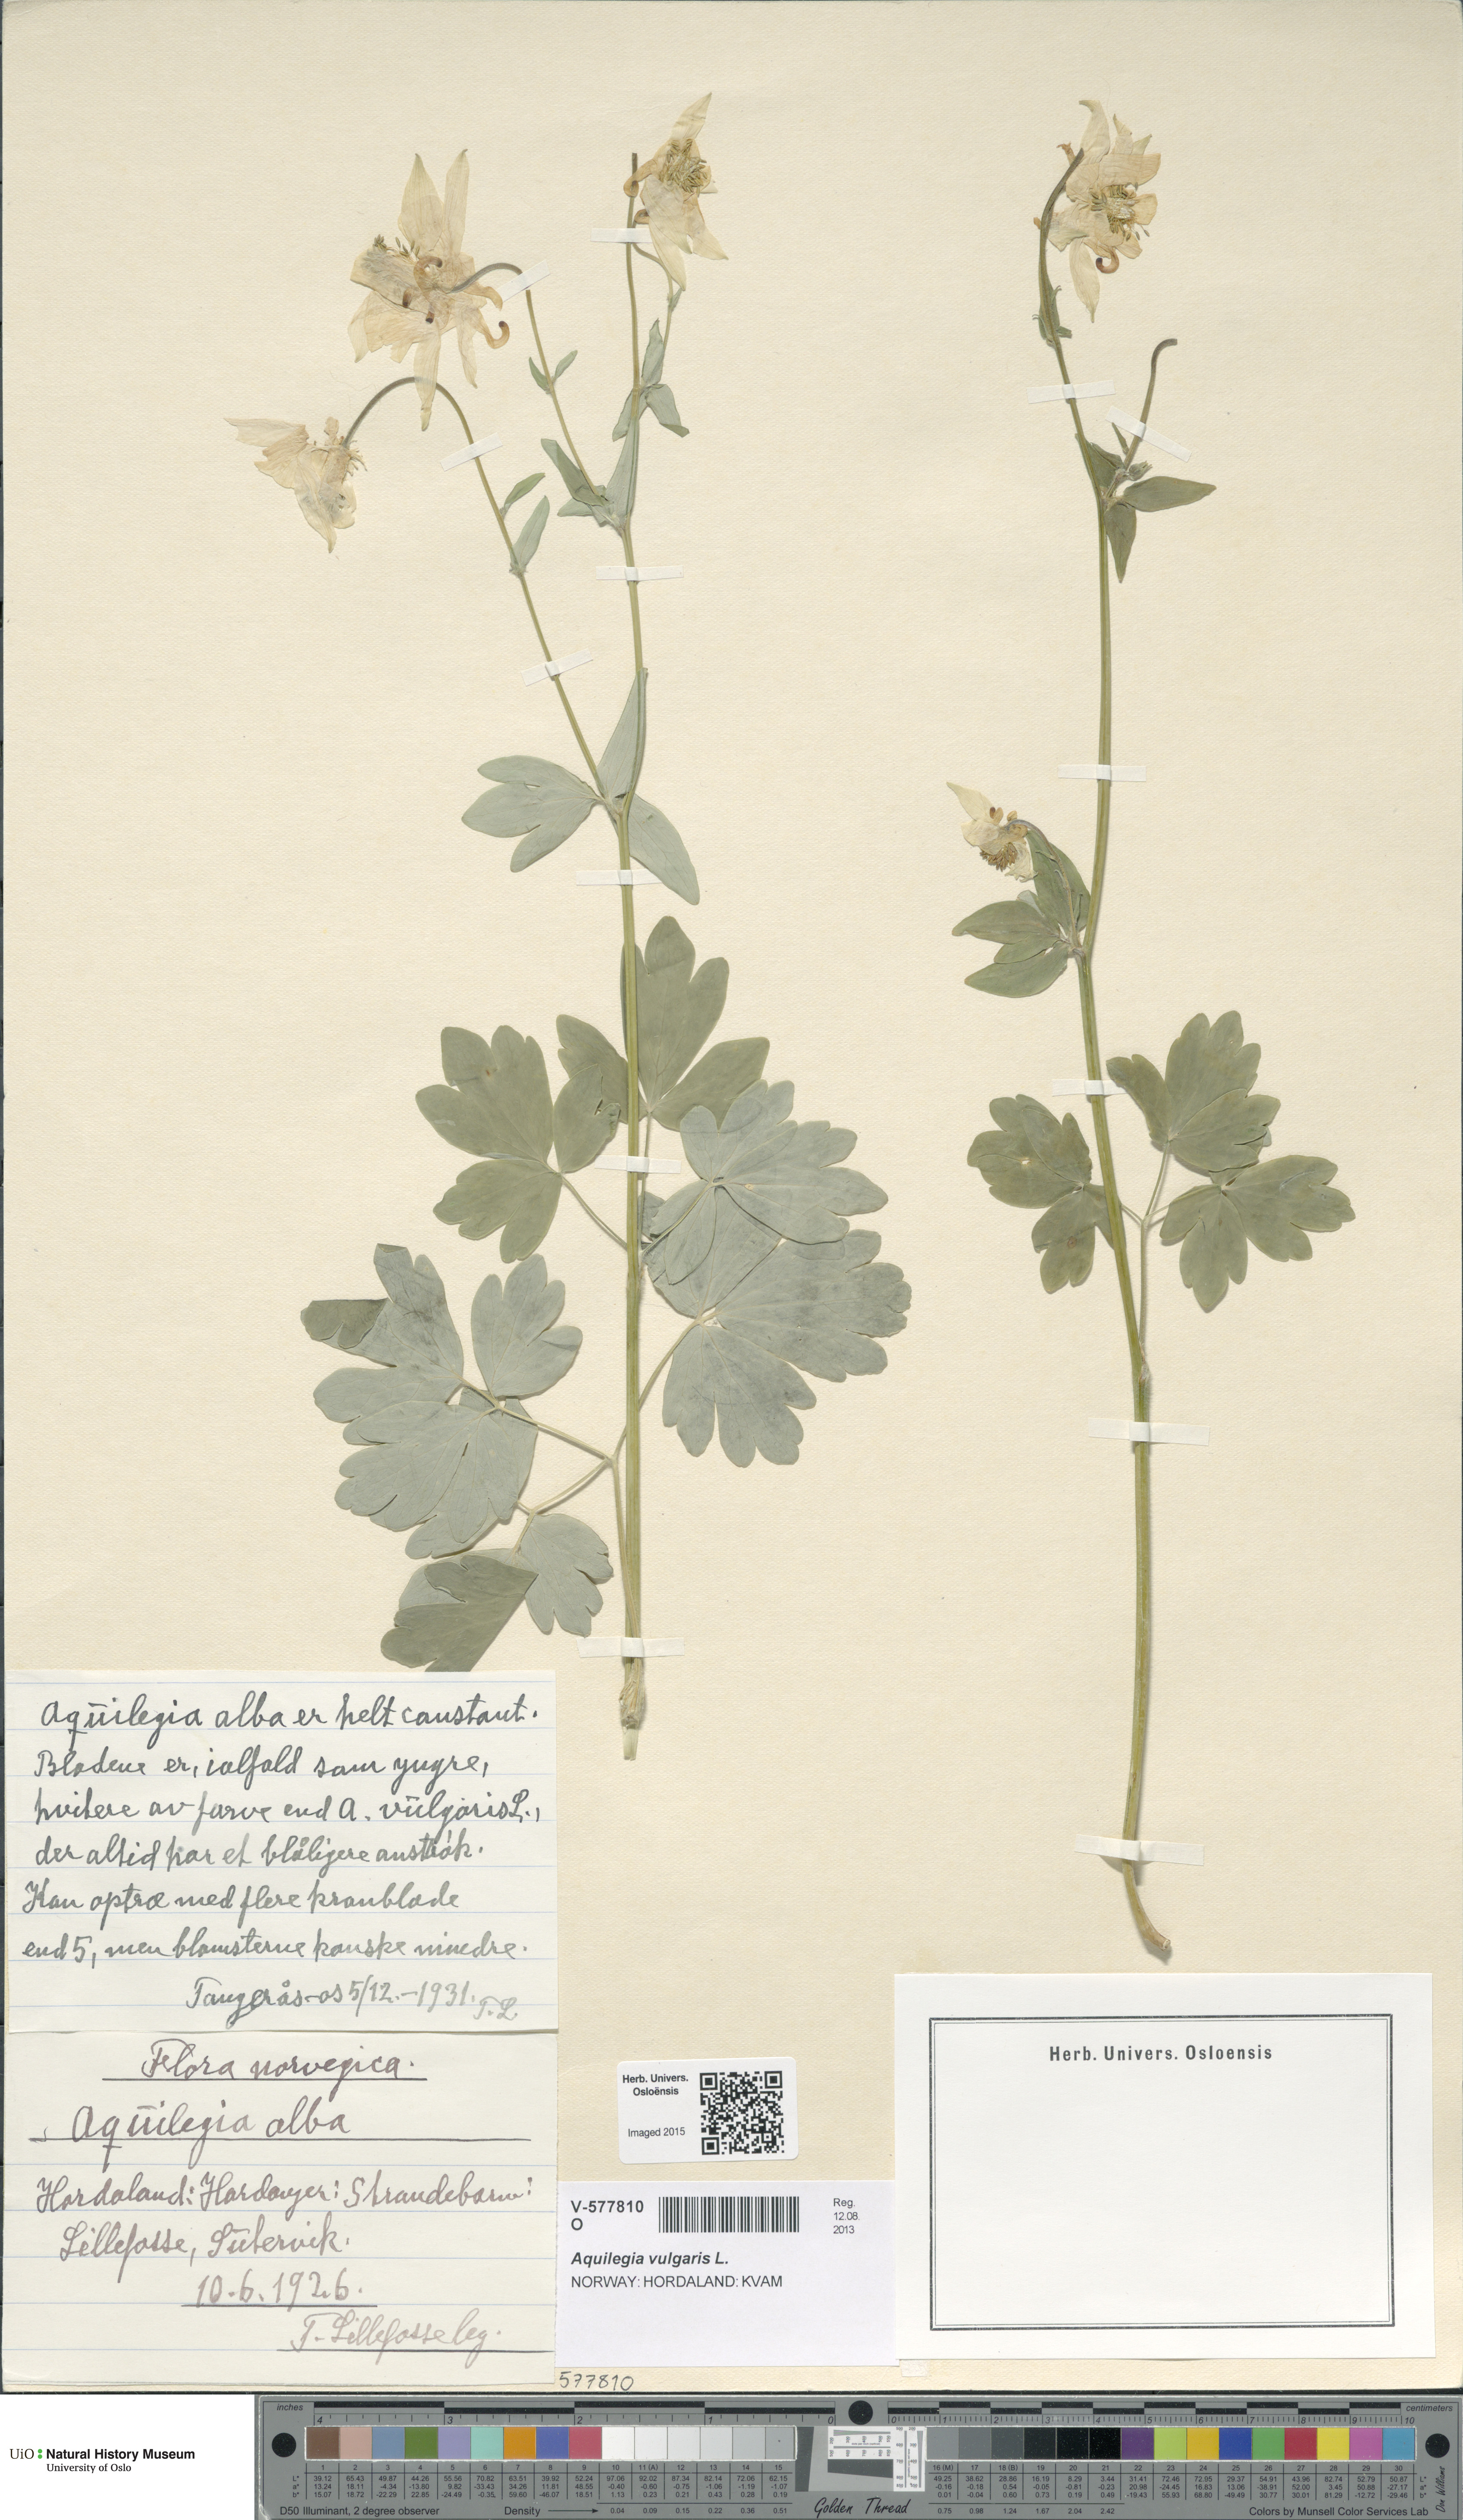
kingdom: Plantae
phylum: Tracheophyta
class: Magnoliopsida
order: Ranunculales
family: Ranunculaceae
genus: Aquilegia
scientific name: Aquilegia vulgaris
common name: Columbine
